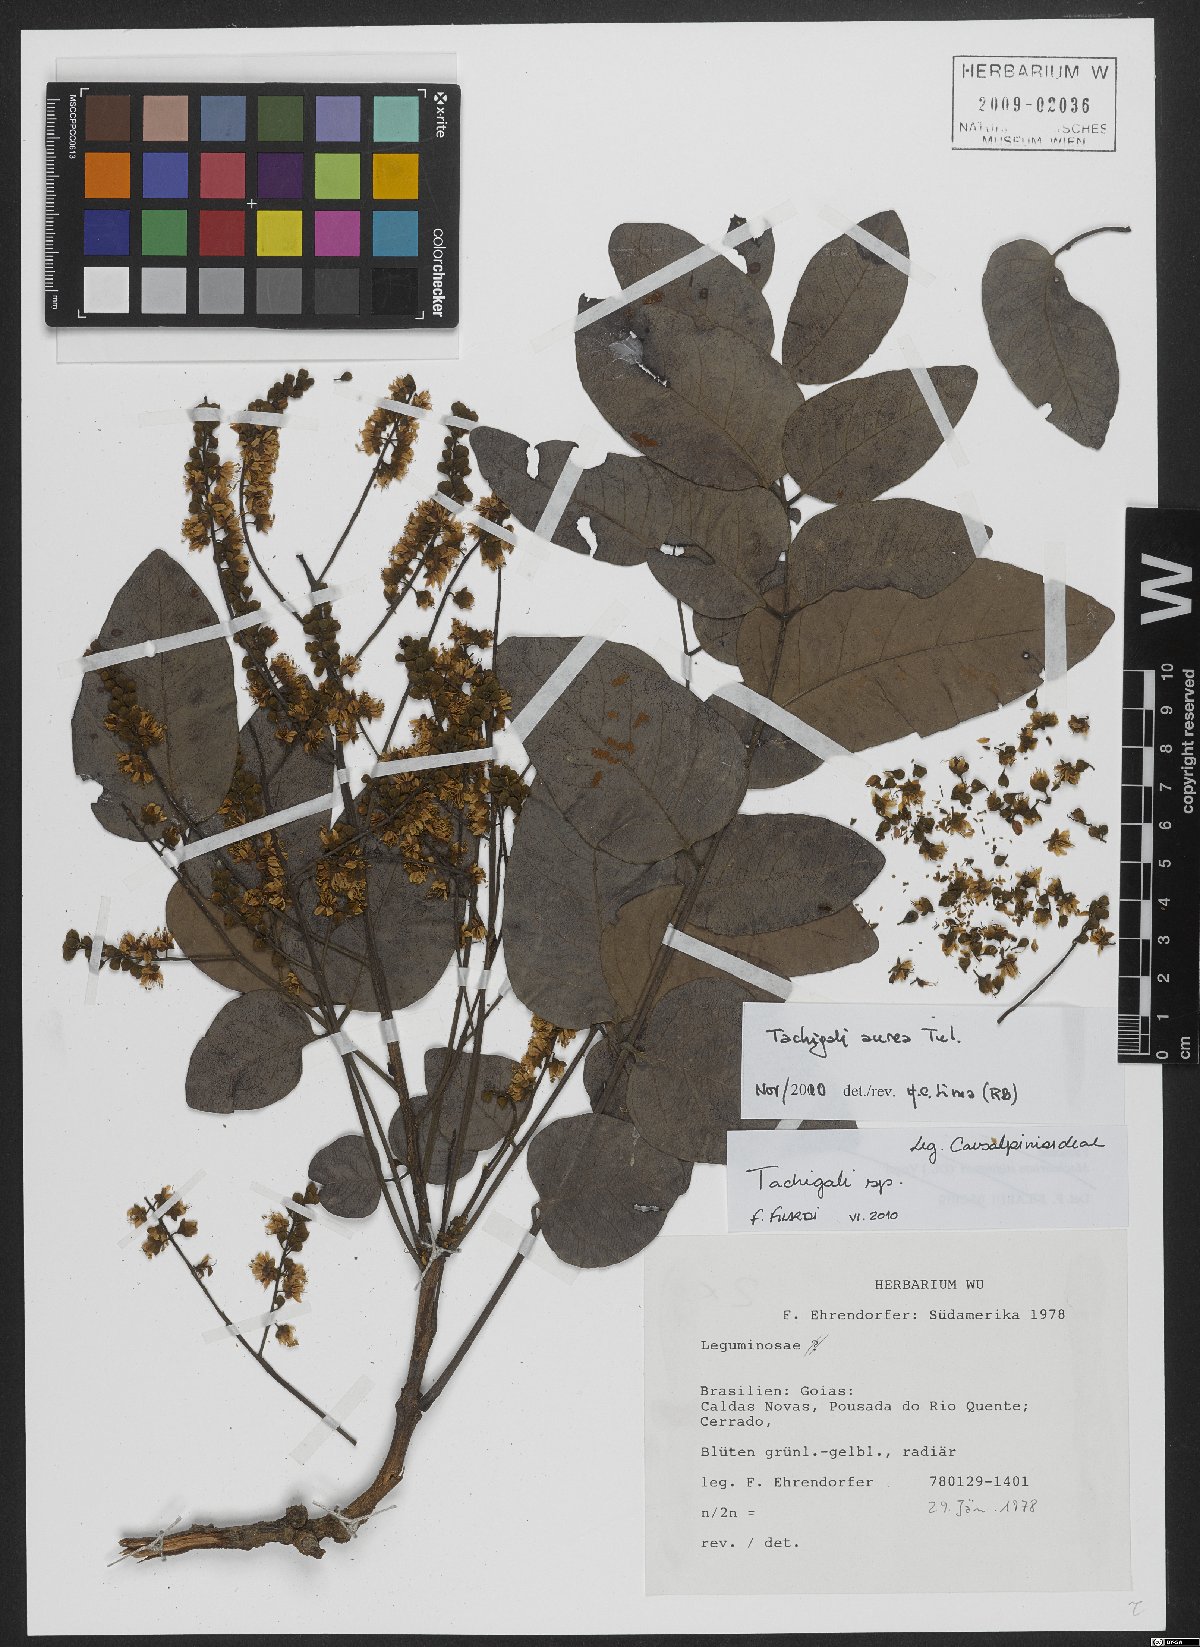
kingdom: Plantae
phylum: Tracheophyta
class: Magnoliopsida
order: Fabales
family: Fabaceae
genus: Tachigali
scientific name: Tachigali aurea
